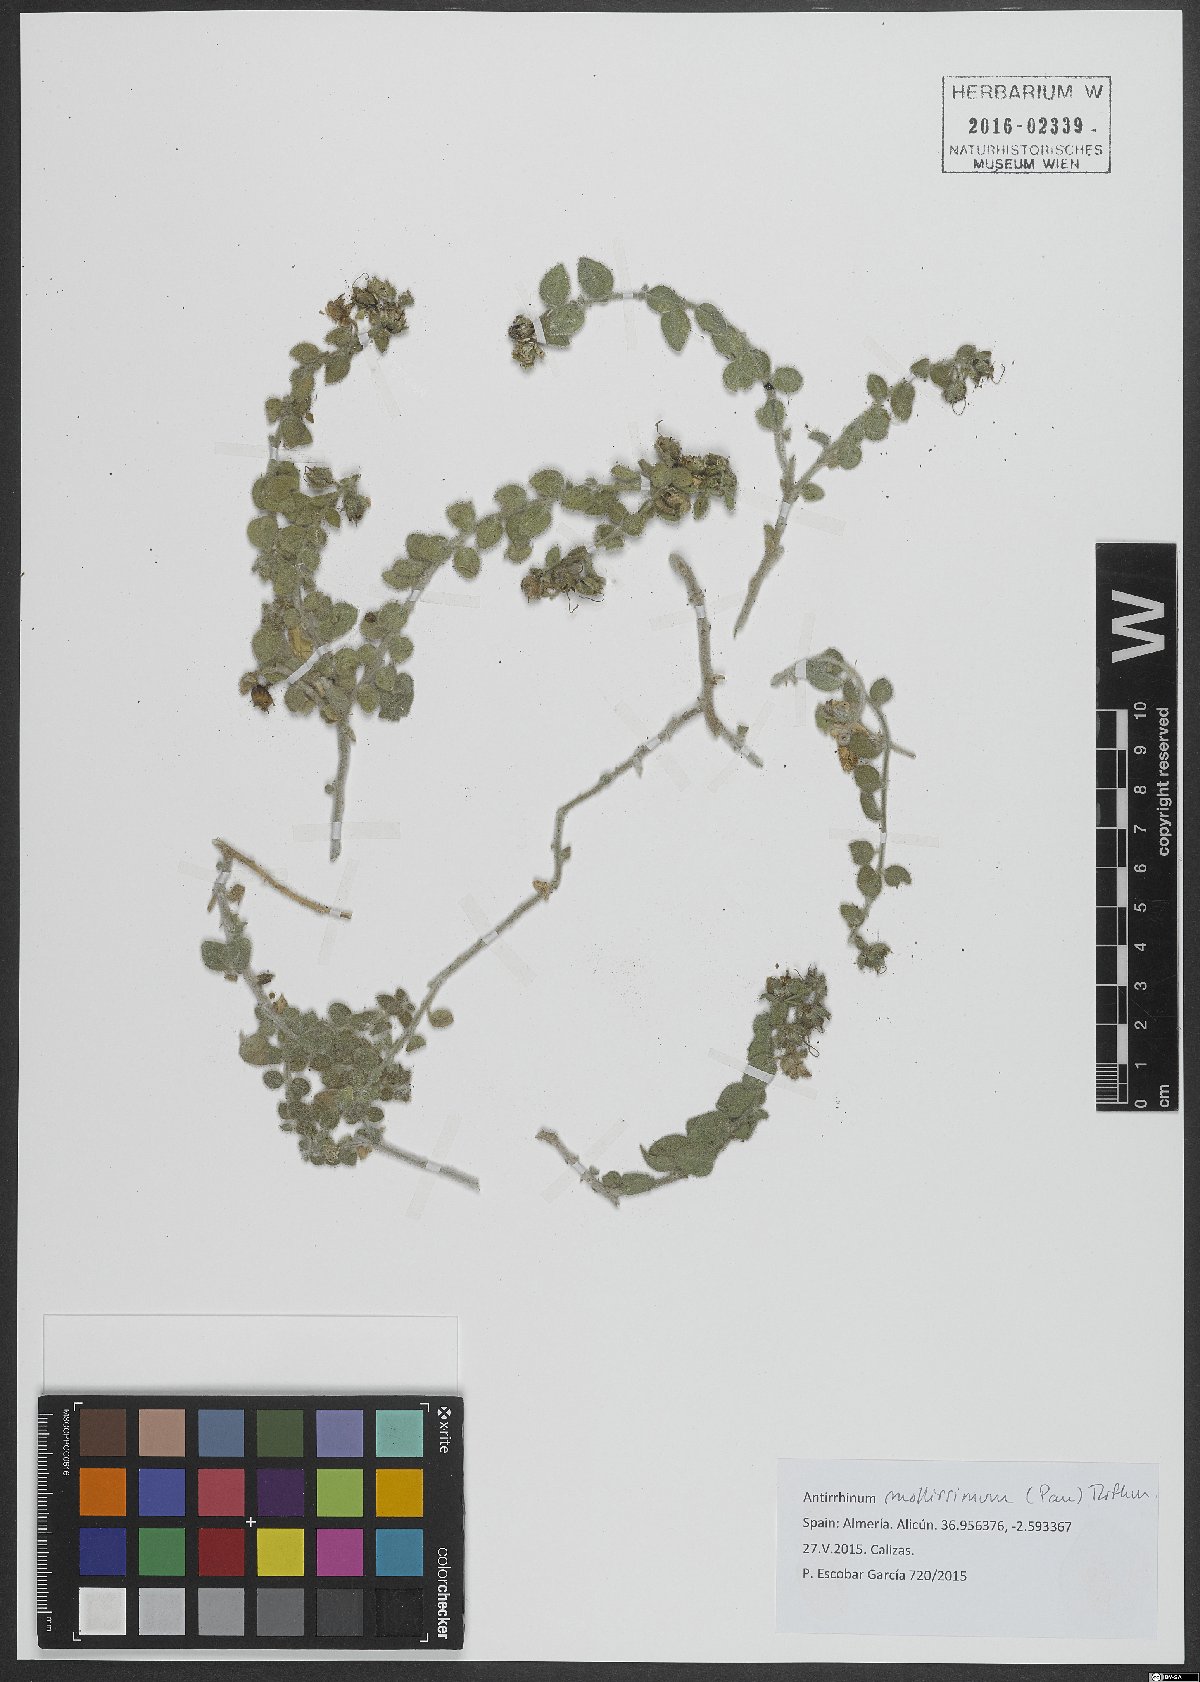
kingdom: Plantae
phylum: Tracheophyta
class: Magnoliopsida
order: Lamiales
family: Plantaginaceae
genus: Antirrhinum
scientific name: Antirrhinum mollissimum
